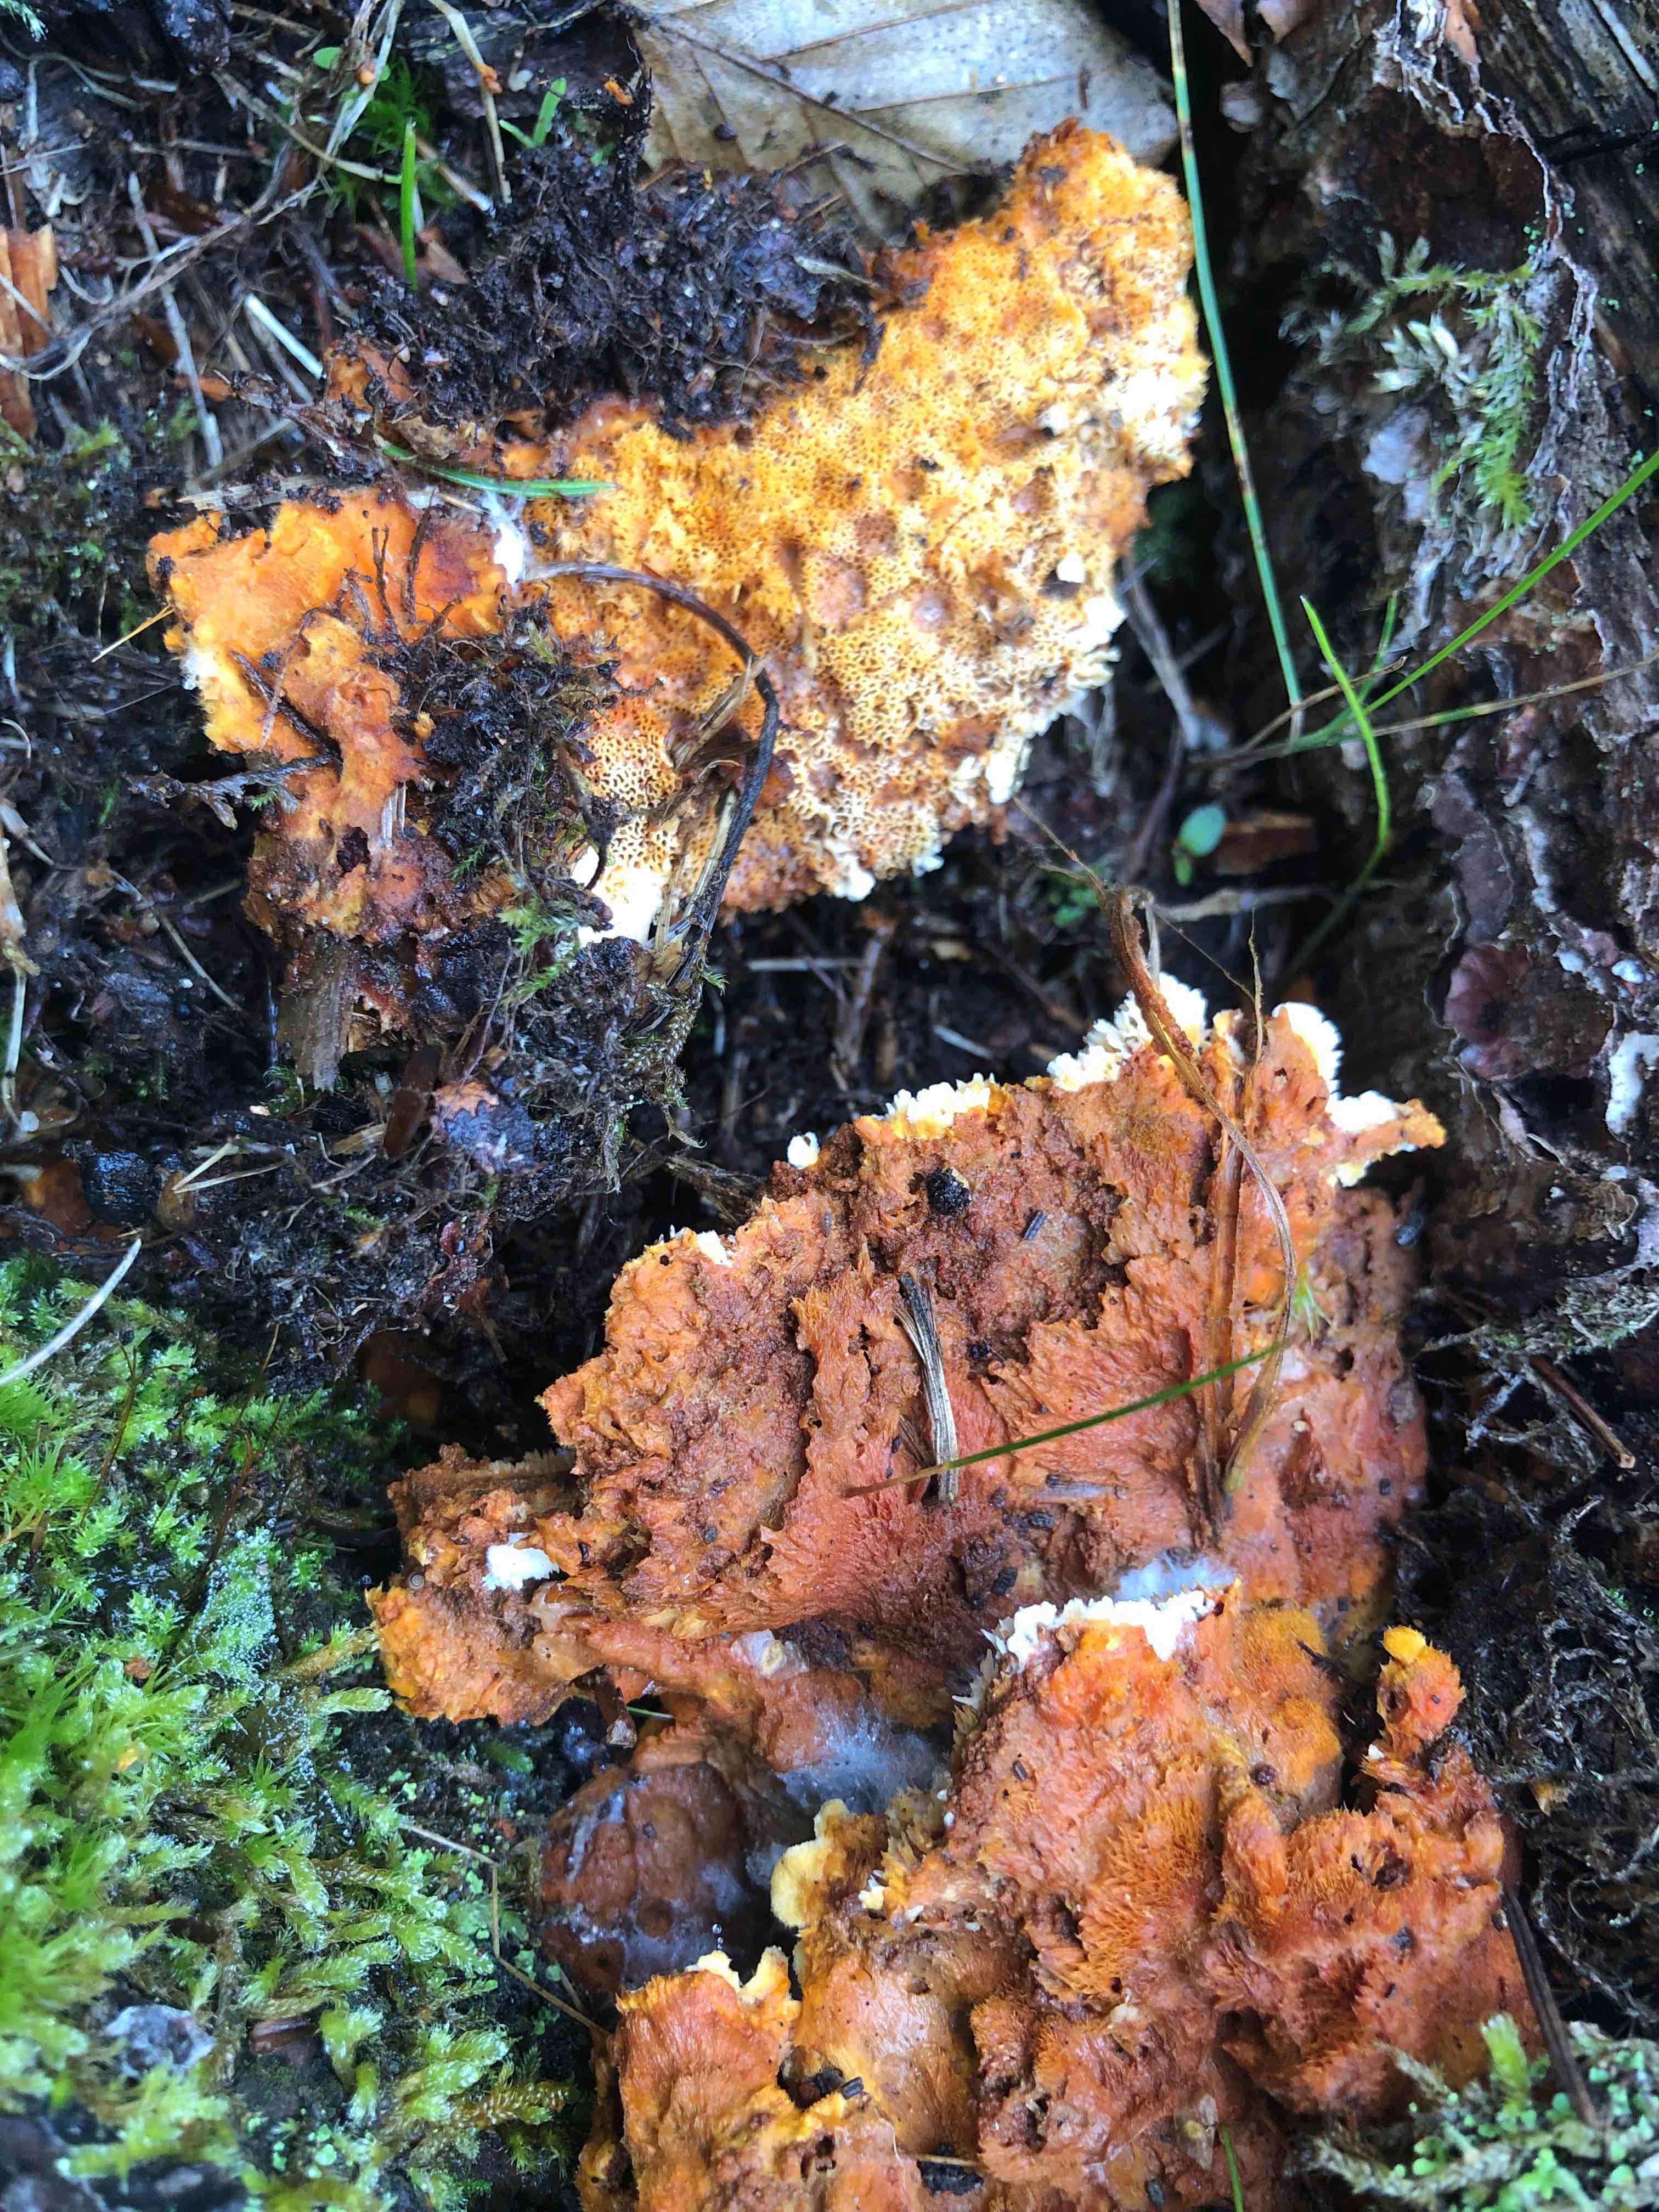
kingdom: Fungi
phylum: Basidiomycota
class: Agaricomycetes
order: Polyporales
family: Pycnoporellaceae
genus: Pycnoporellus
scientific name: Pycnoporellus fulgens
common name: flammeporesvamp
